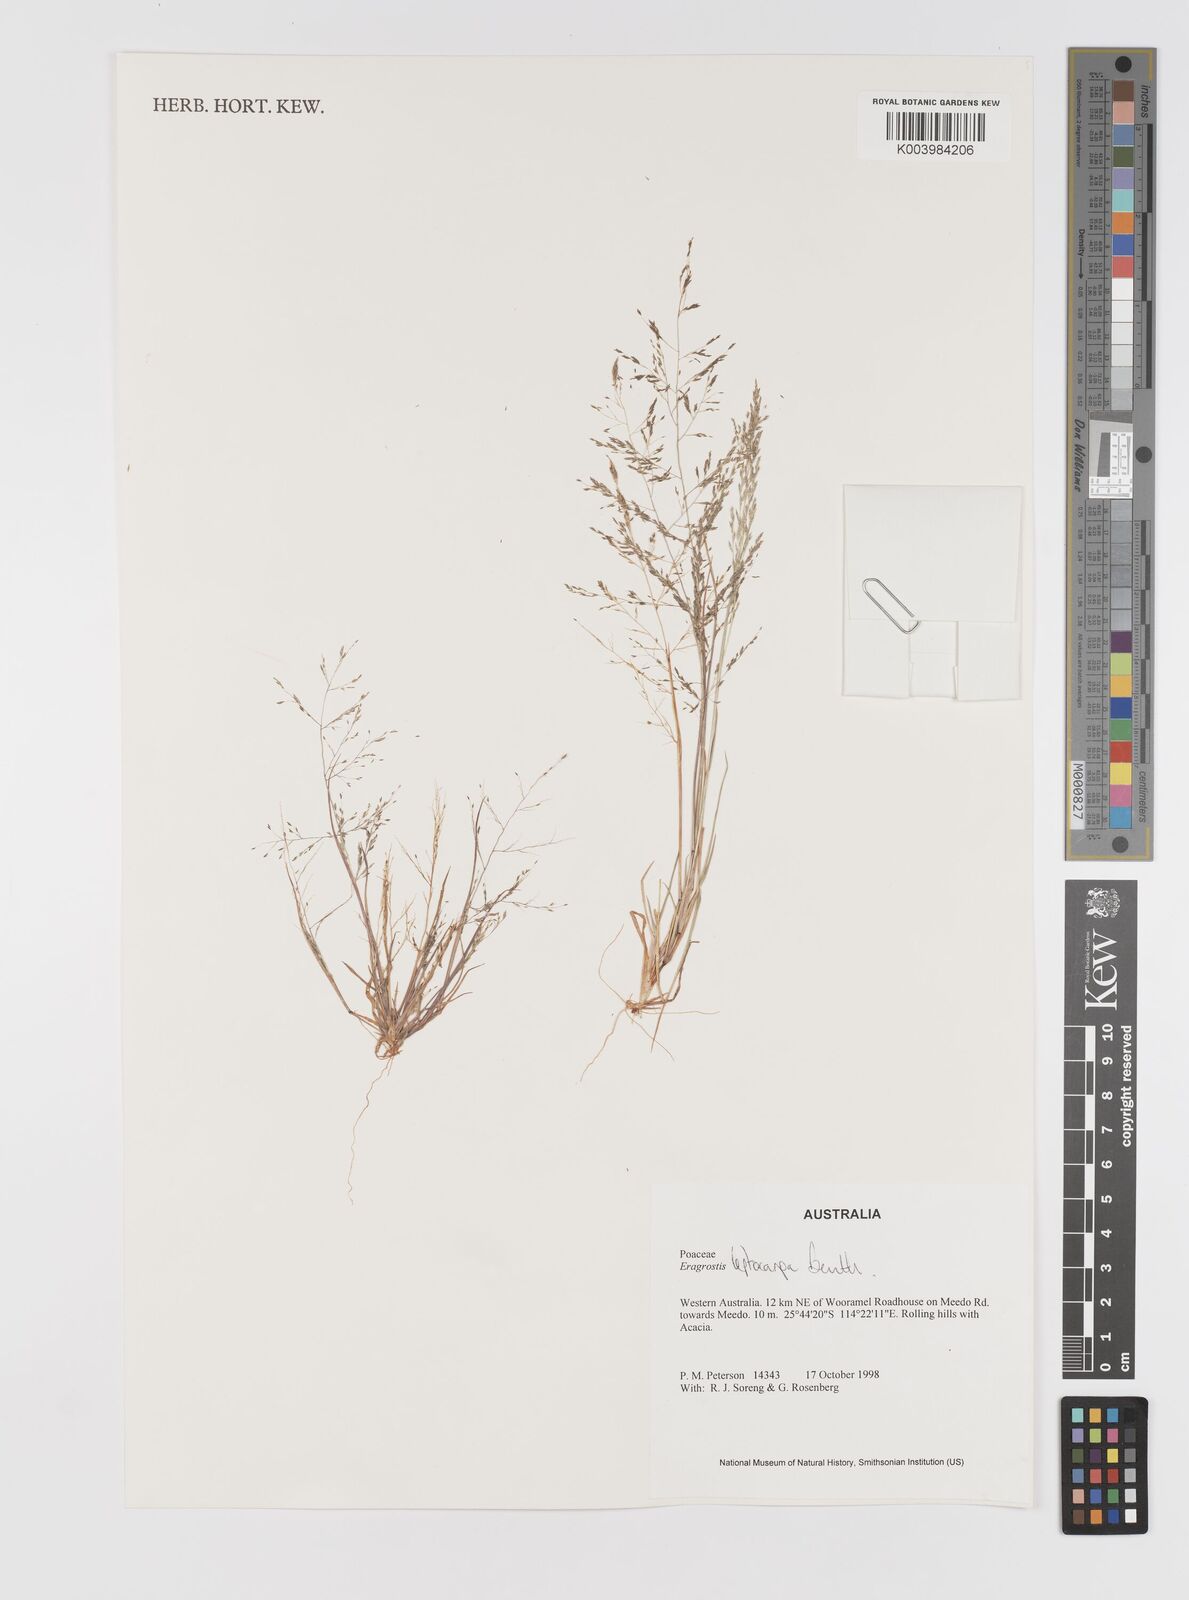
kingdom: Plantae
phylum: Tracheophyta
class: Liliopsida
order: Poales
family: Poaceae
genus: Eragrostis
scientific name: Eragrostis leptocarpa
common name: Drooping love grass
